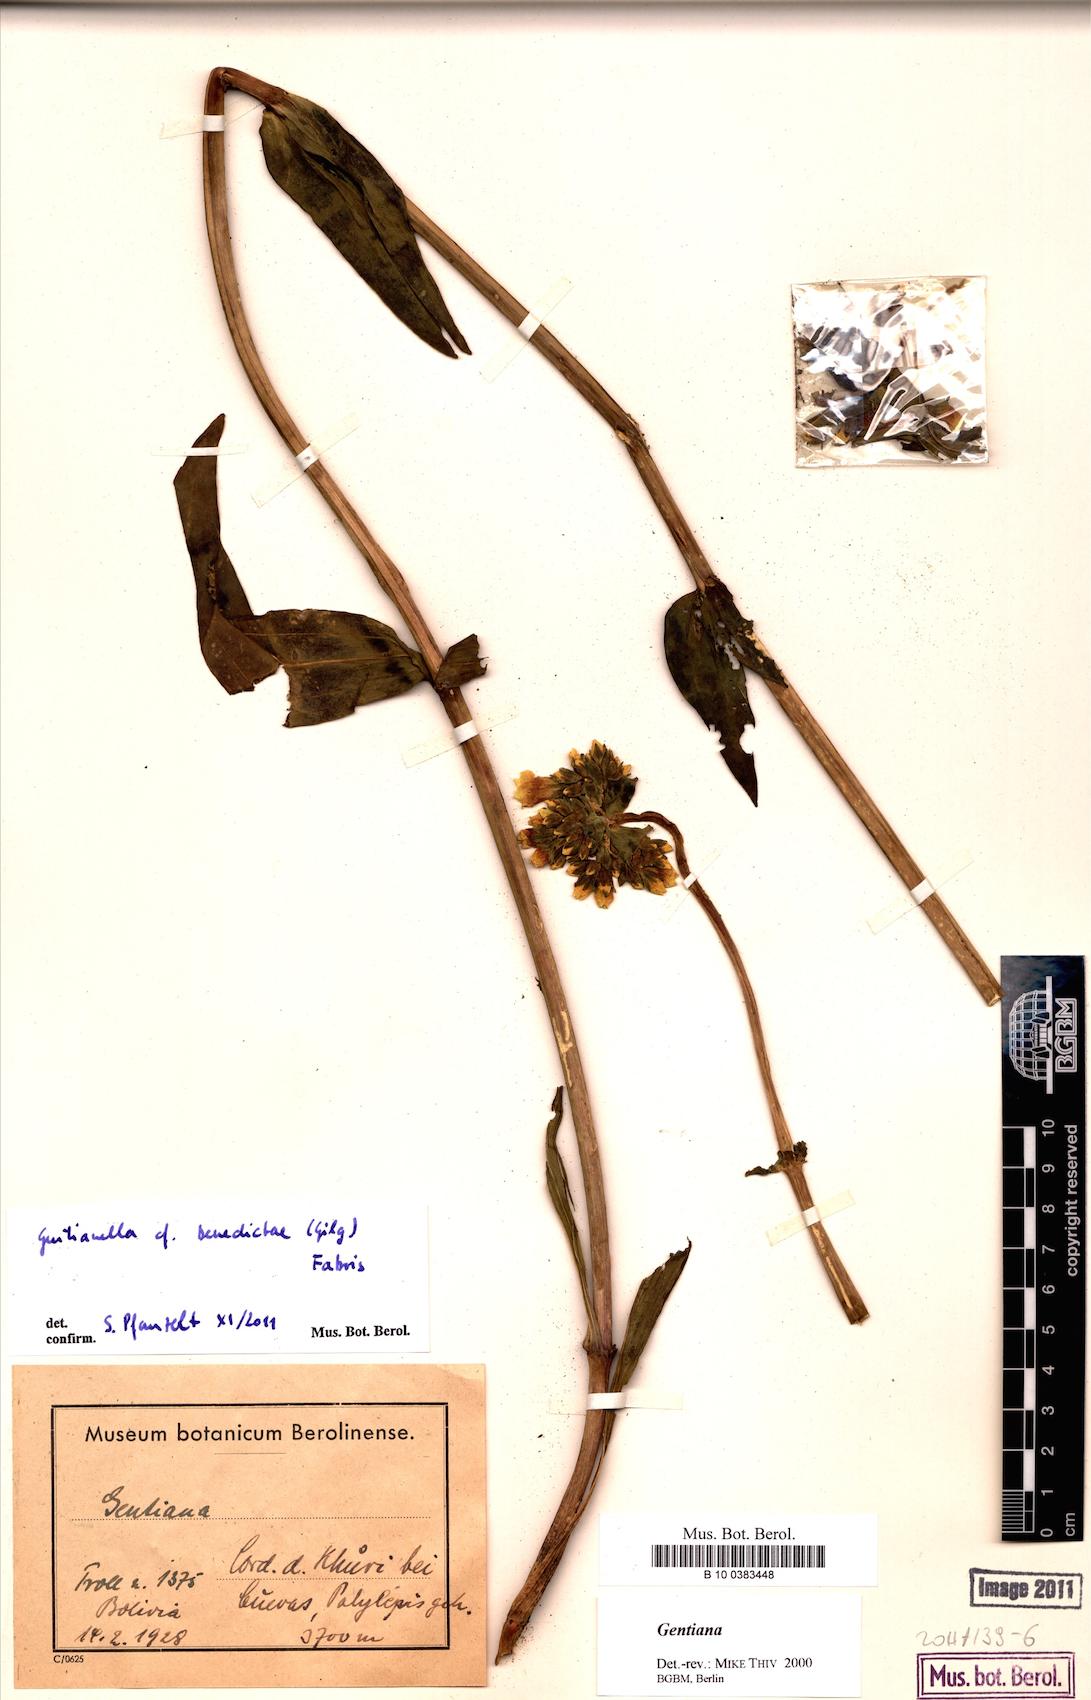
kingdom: Plantae
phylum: Tracheophyta
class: Magnoliopsida
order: Gentianales
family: Gentianaceae
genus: Gentianella
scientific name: Gentianella
